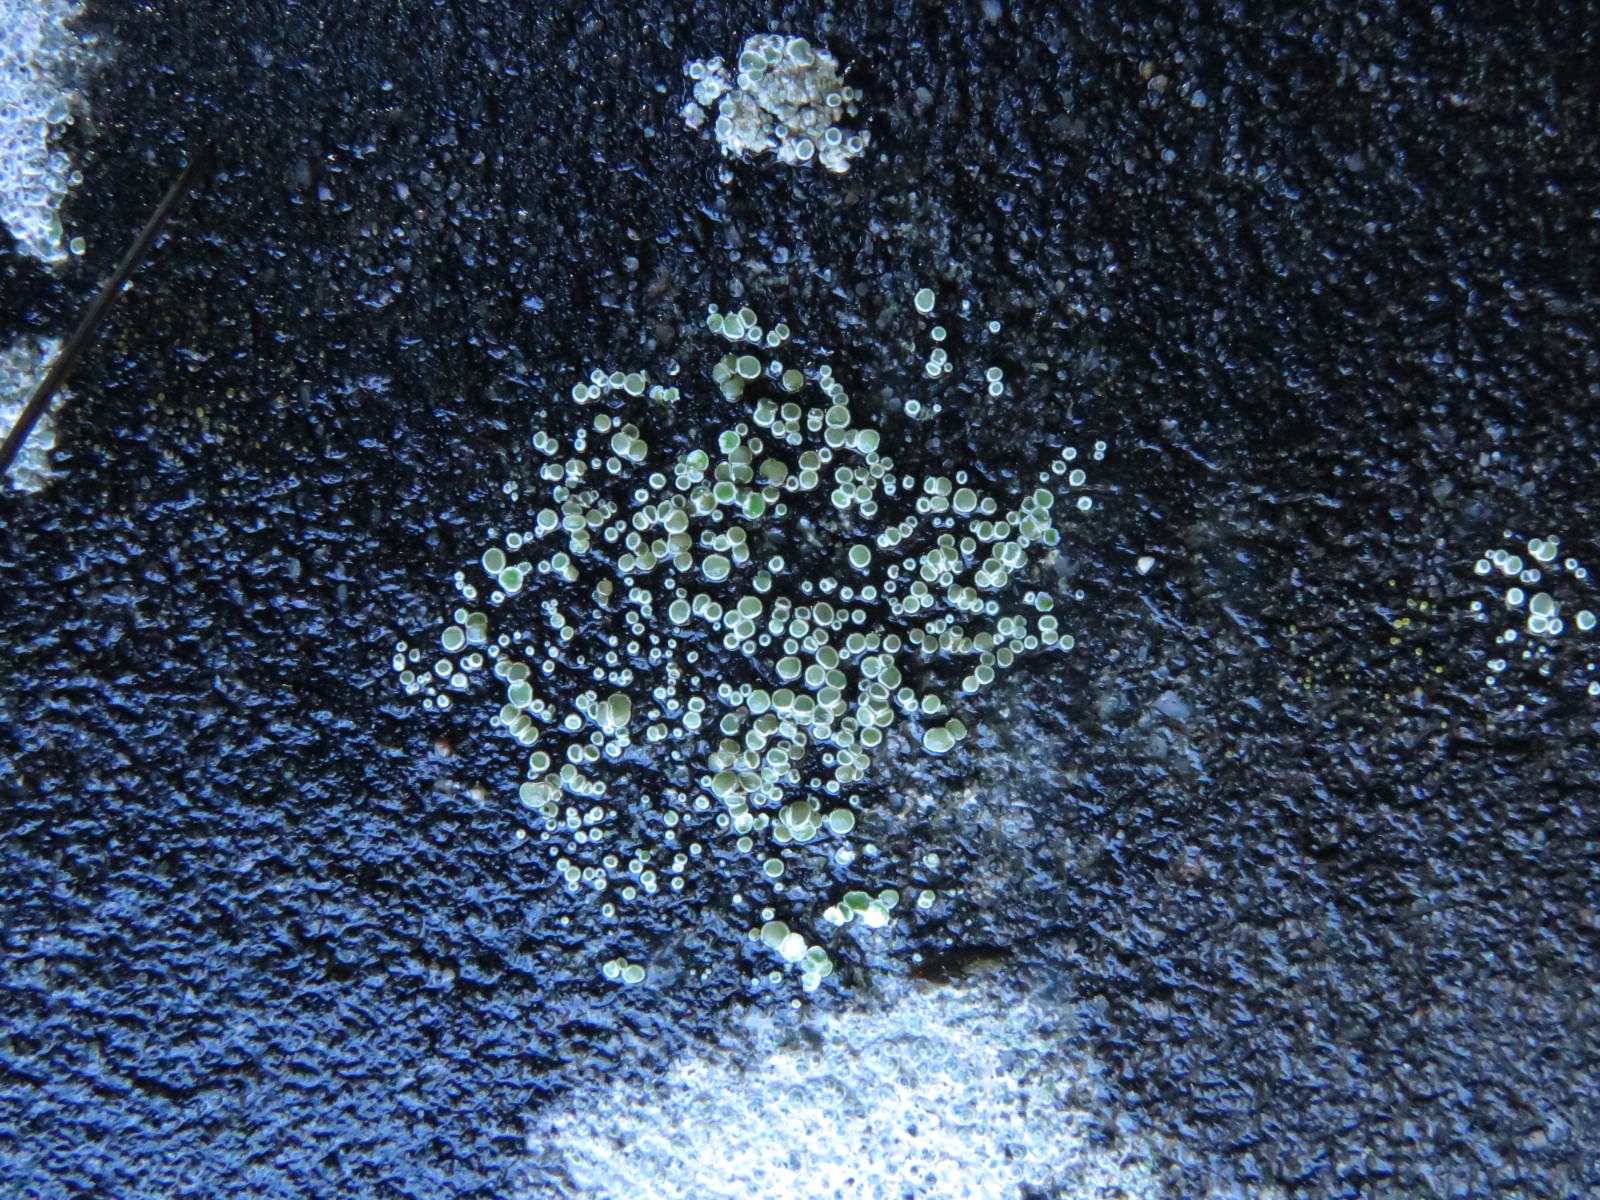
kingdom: Fungi
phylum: Ascomycota
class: Lecanoromycetes
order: Lecanorales
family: Lecanoraceae
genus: Polyozosia
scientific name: Polyozosia dispersa
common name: spredt kantskivelav
